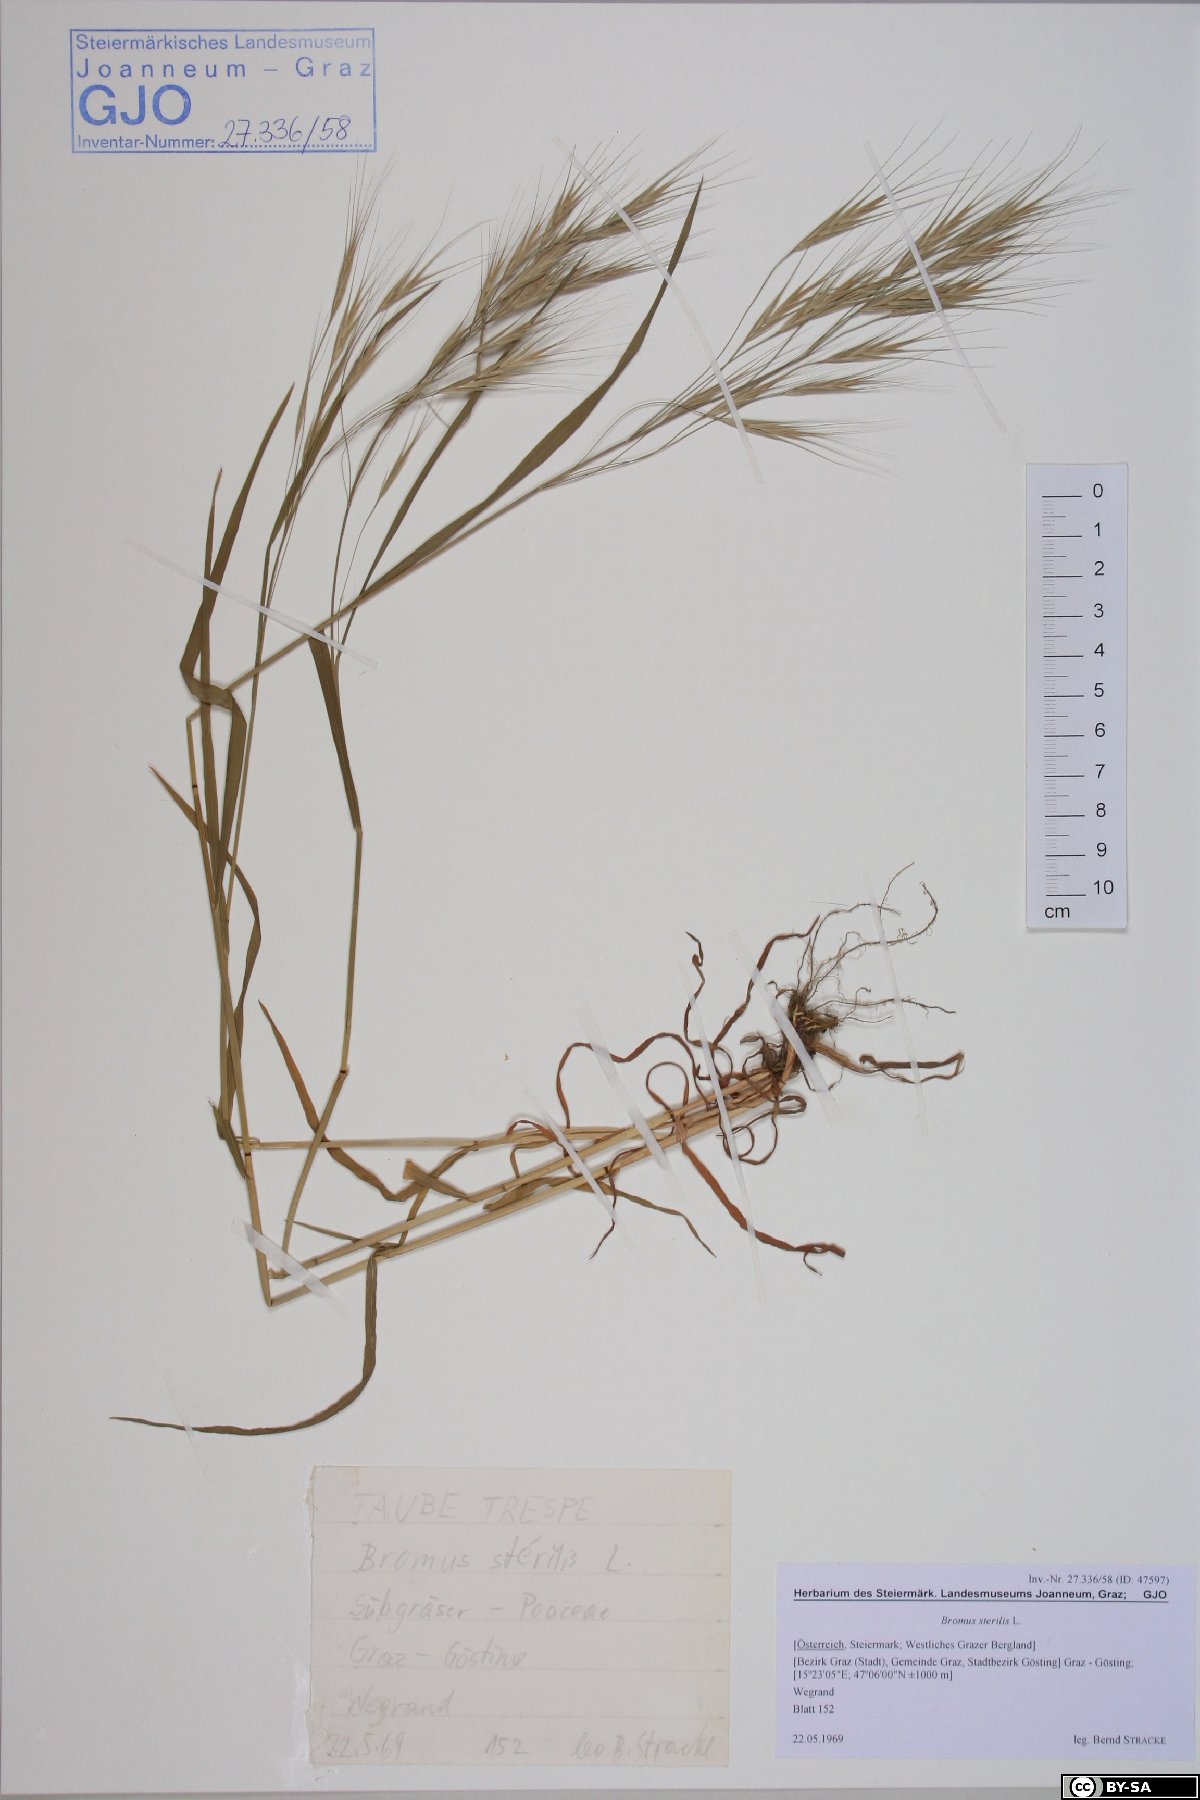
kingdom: Plantae
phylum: Tracheophyta
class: Liliopsida
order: Poales
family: Poaceae
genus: Bromus
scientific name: Bromus sterilis
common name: Poverty brome
